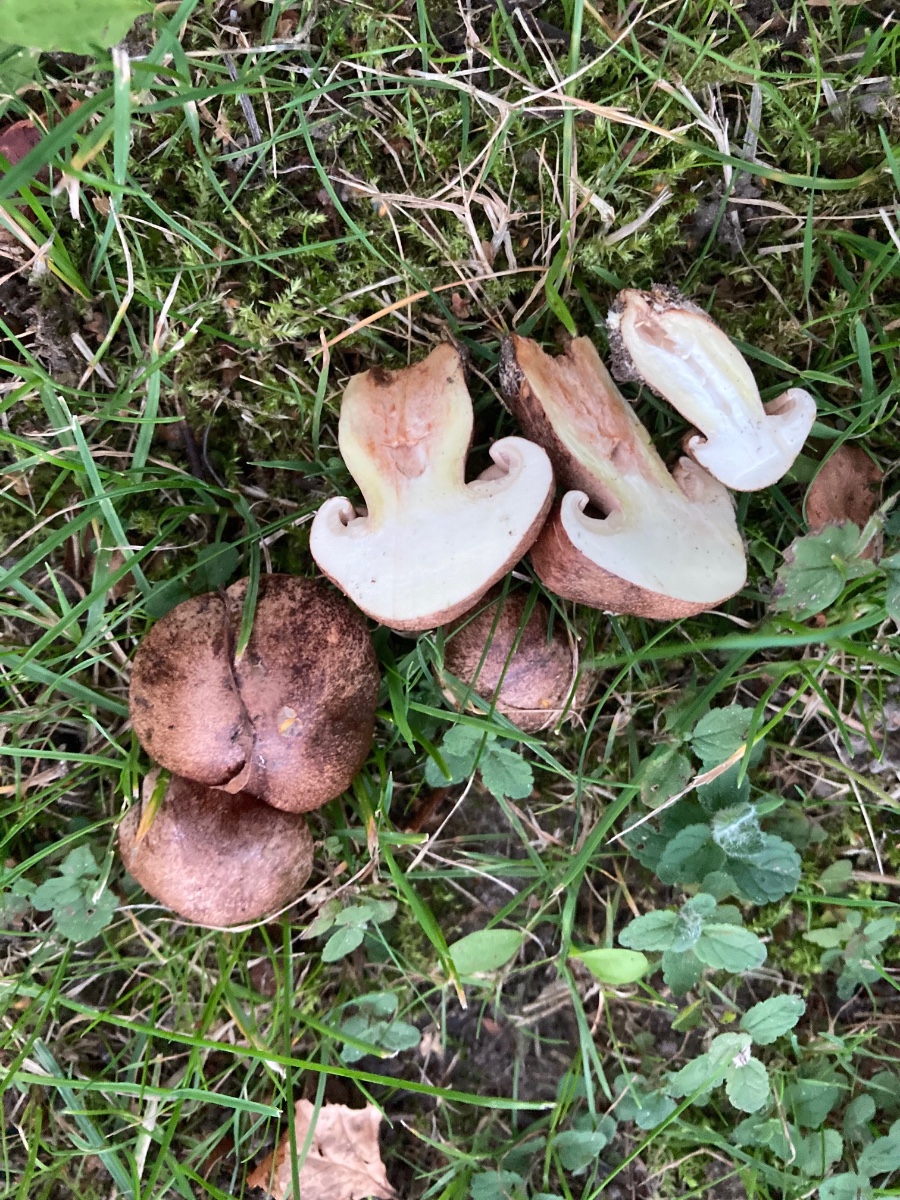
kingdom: Fungi
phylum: Basidiomycota
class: Agaricomycetes
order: Agaricales
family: Tricholomataceae
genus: Tricholoma
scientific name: Tricholoma fulvum
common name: birke-ridderhat
